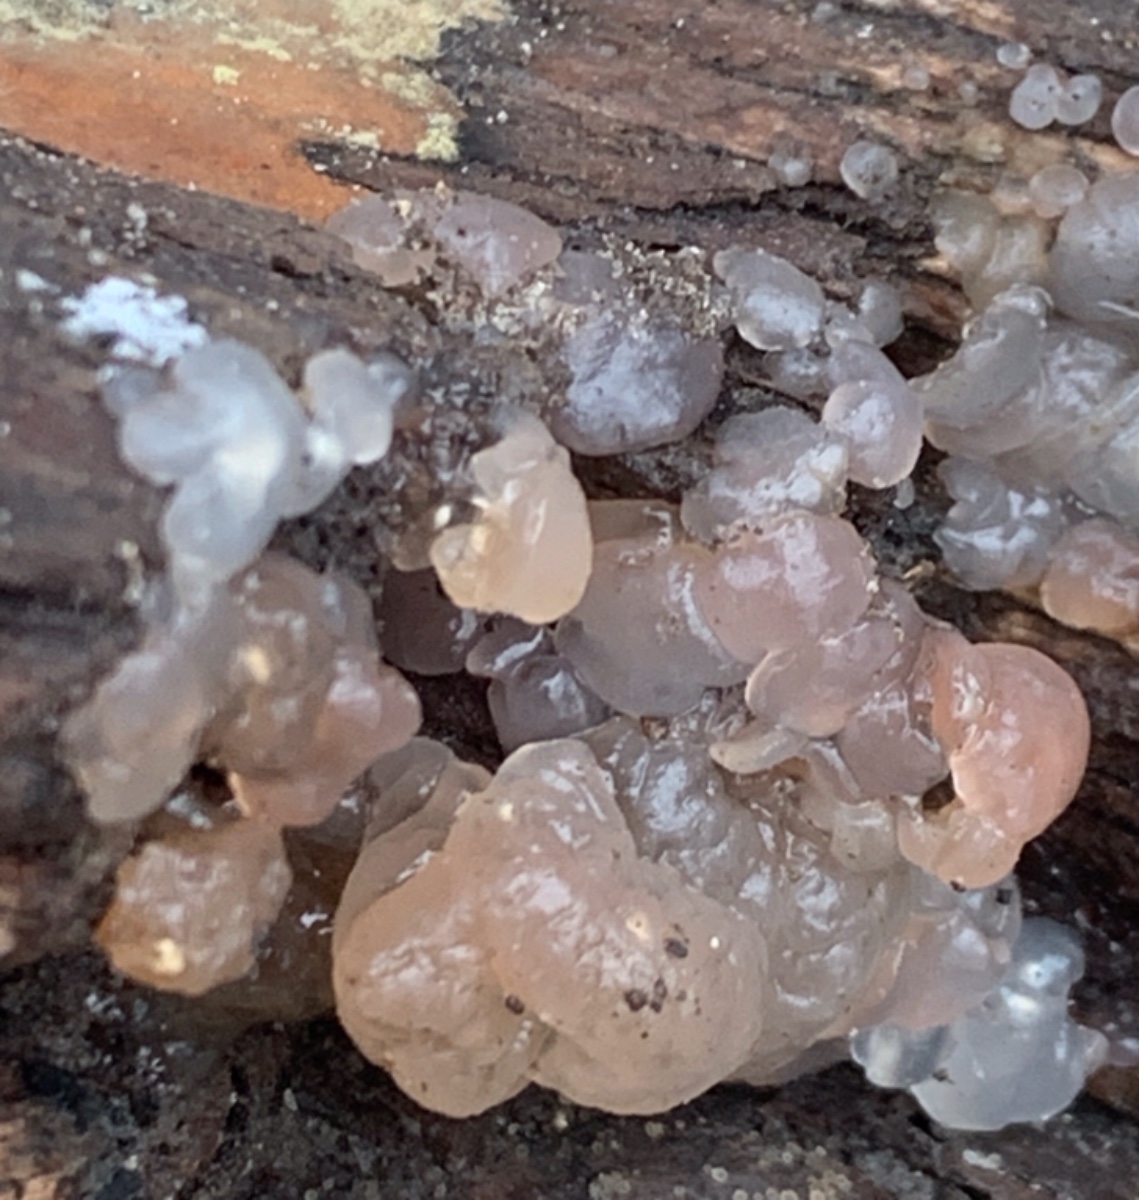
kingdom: Fungi
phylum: Basidiomycota
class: Agaricomycetes
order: Auriculariales
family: Hyaloriaceae
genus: Myxarium
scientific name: Myxarium nucleatum
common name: klar bævretop
